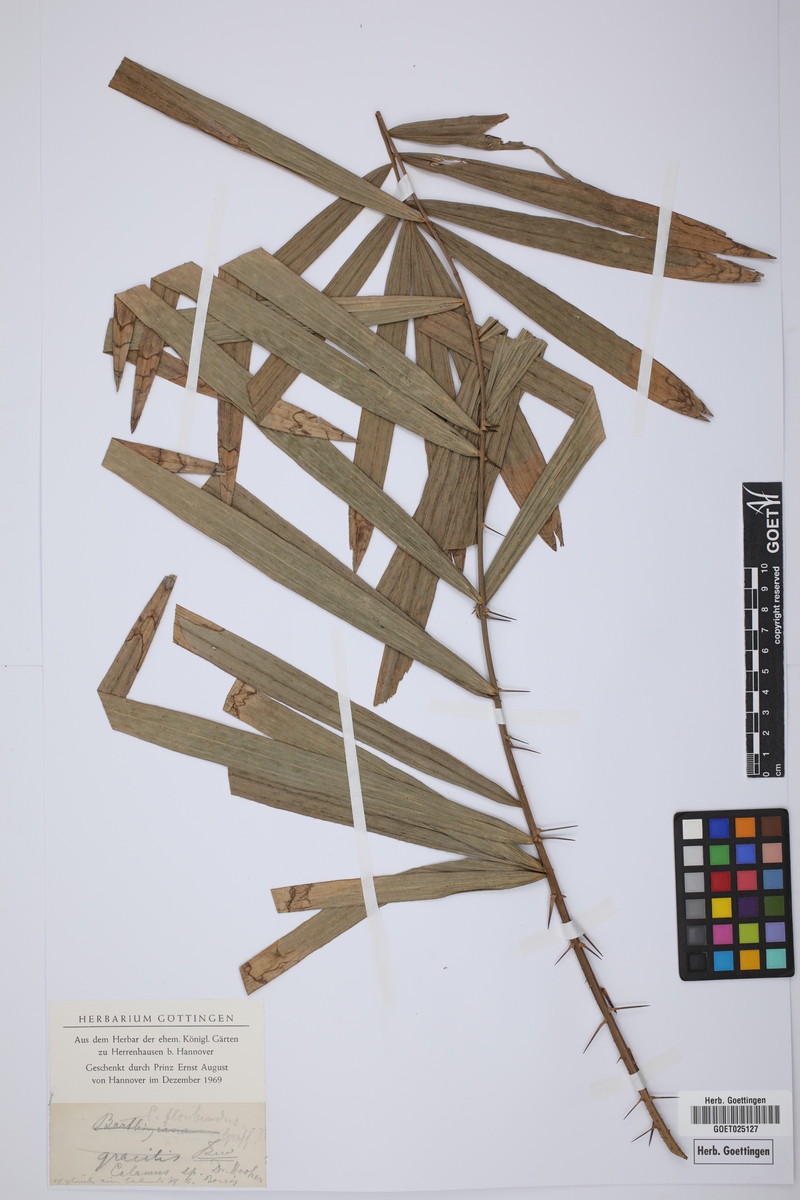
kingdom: Plantae
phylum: Tracheophyta
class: Liliopsida
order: Arecales
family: Arecaceae
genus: Calamus
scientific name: Calamus floribundus
